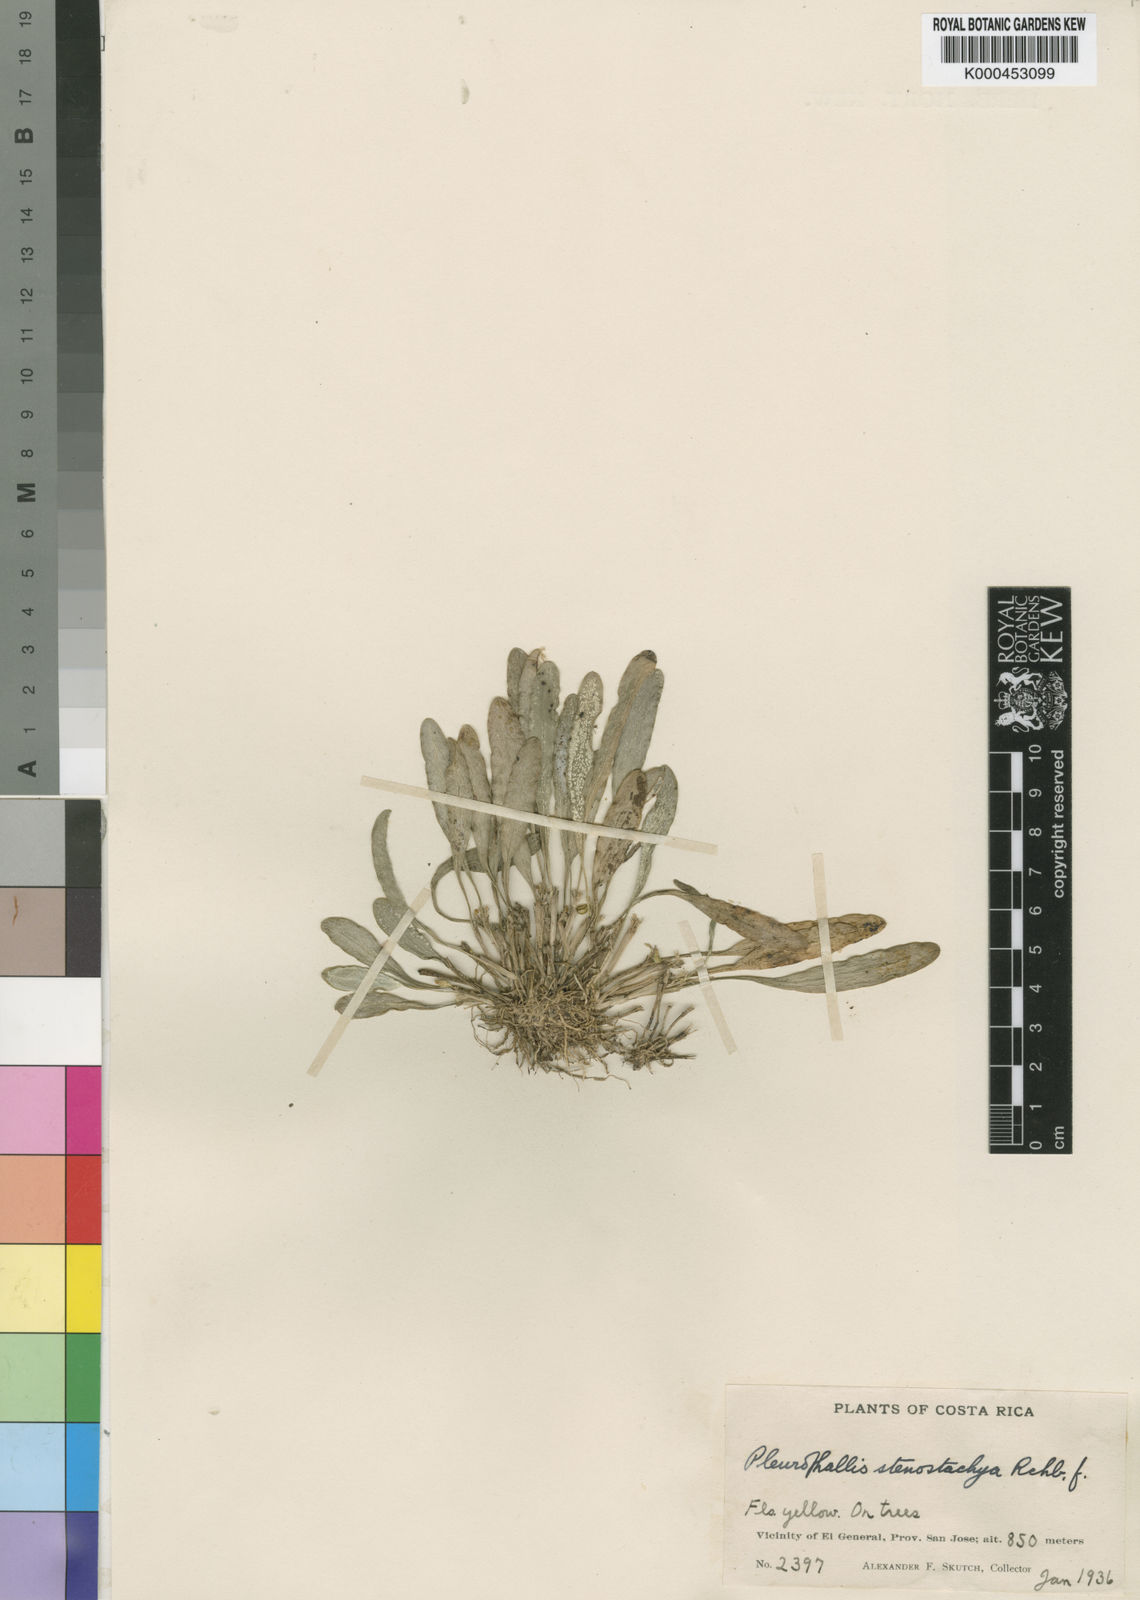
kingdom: Plantae
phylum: Tracheophyta
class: Liliopsida
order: Asparagales
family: Orchidaceae
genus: Platystele
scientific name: Platystele stenostachya
